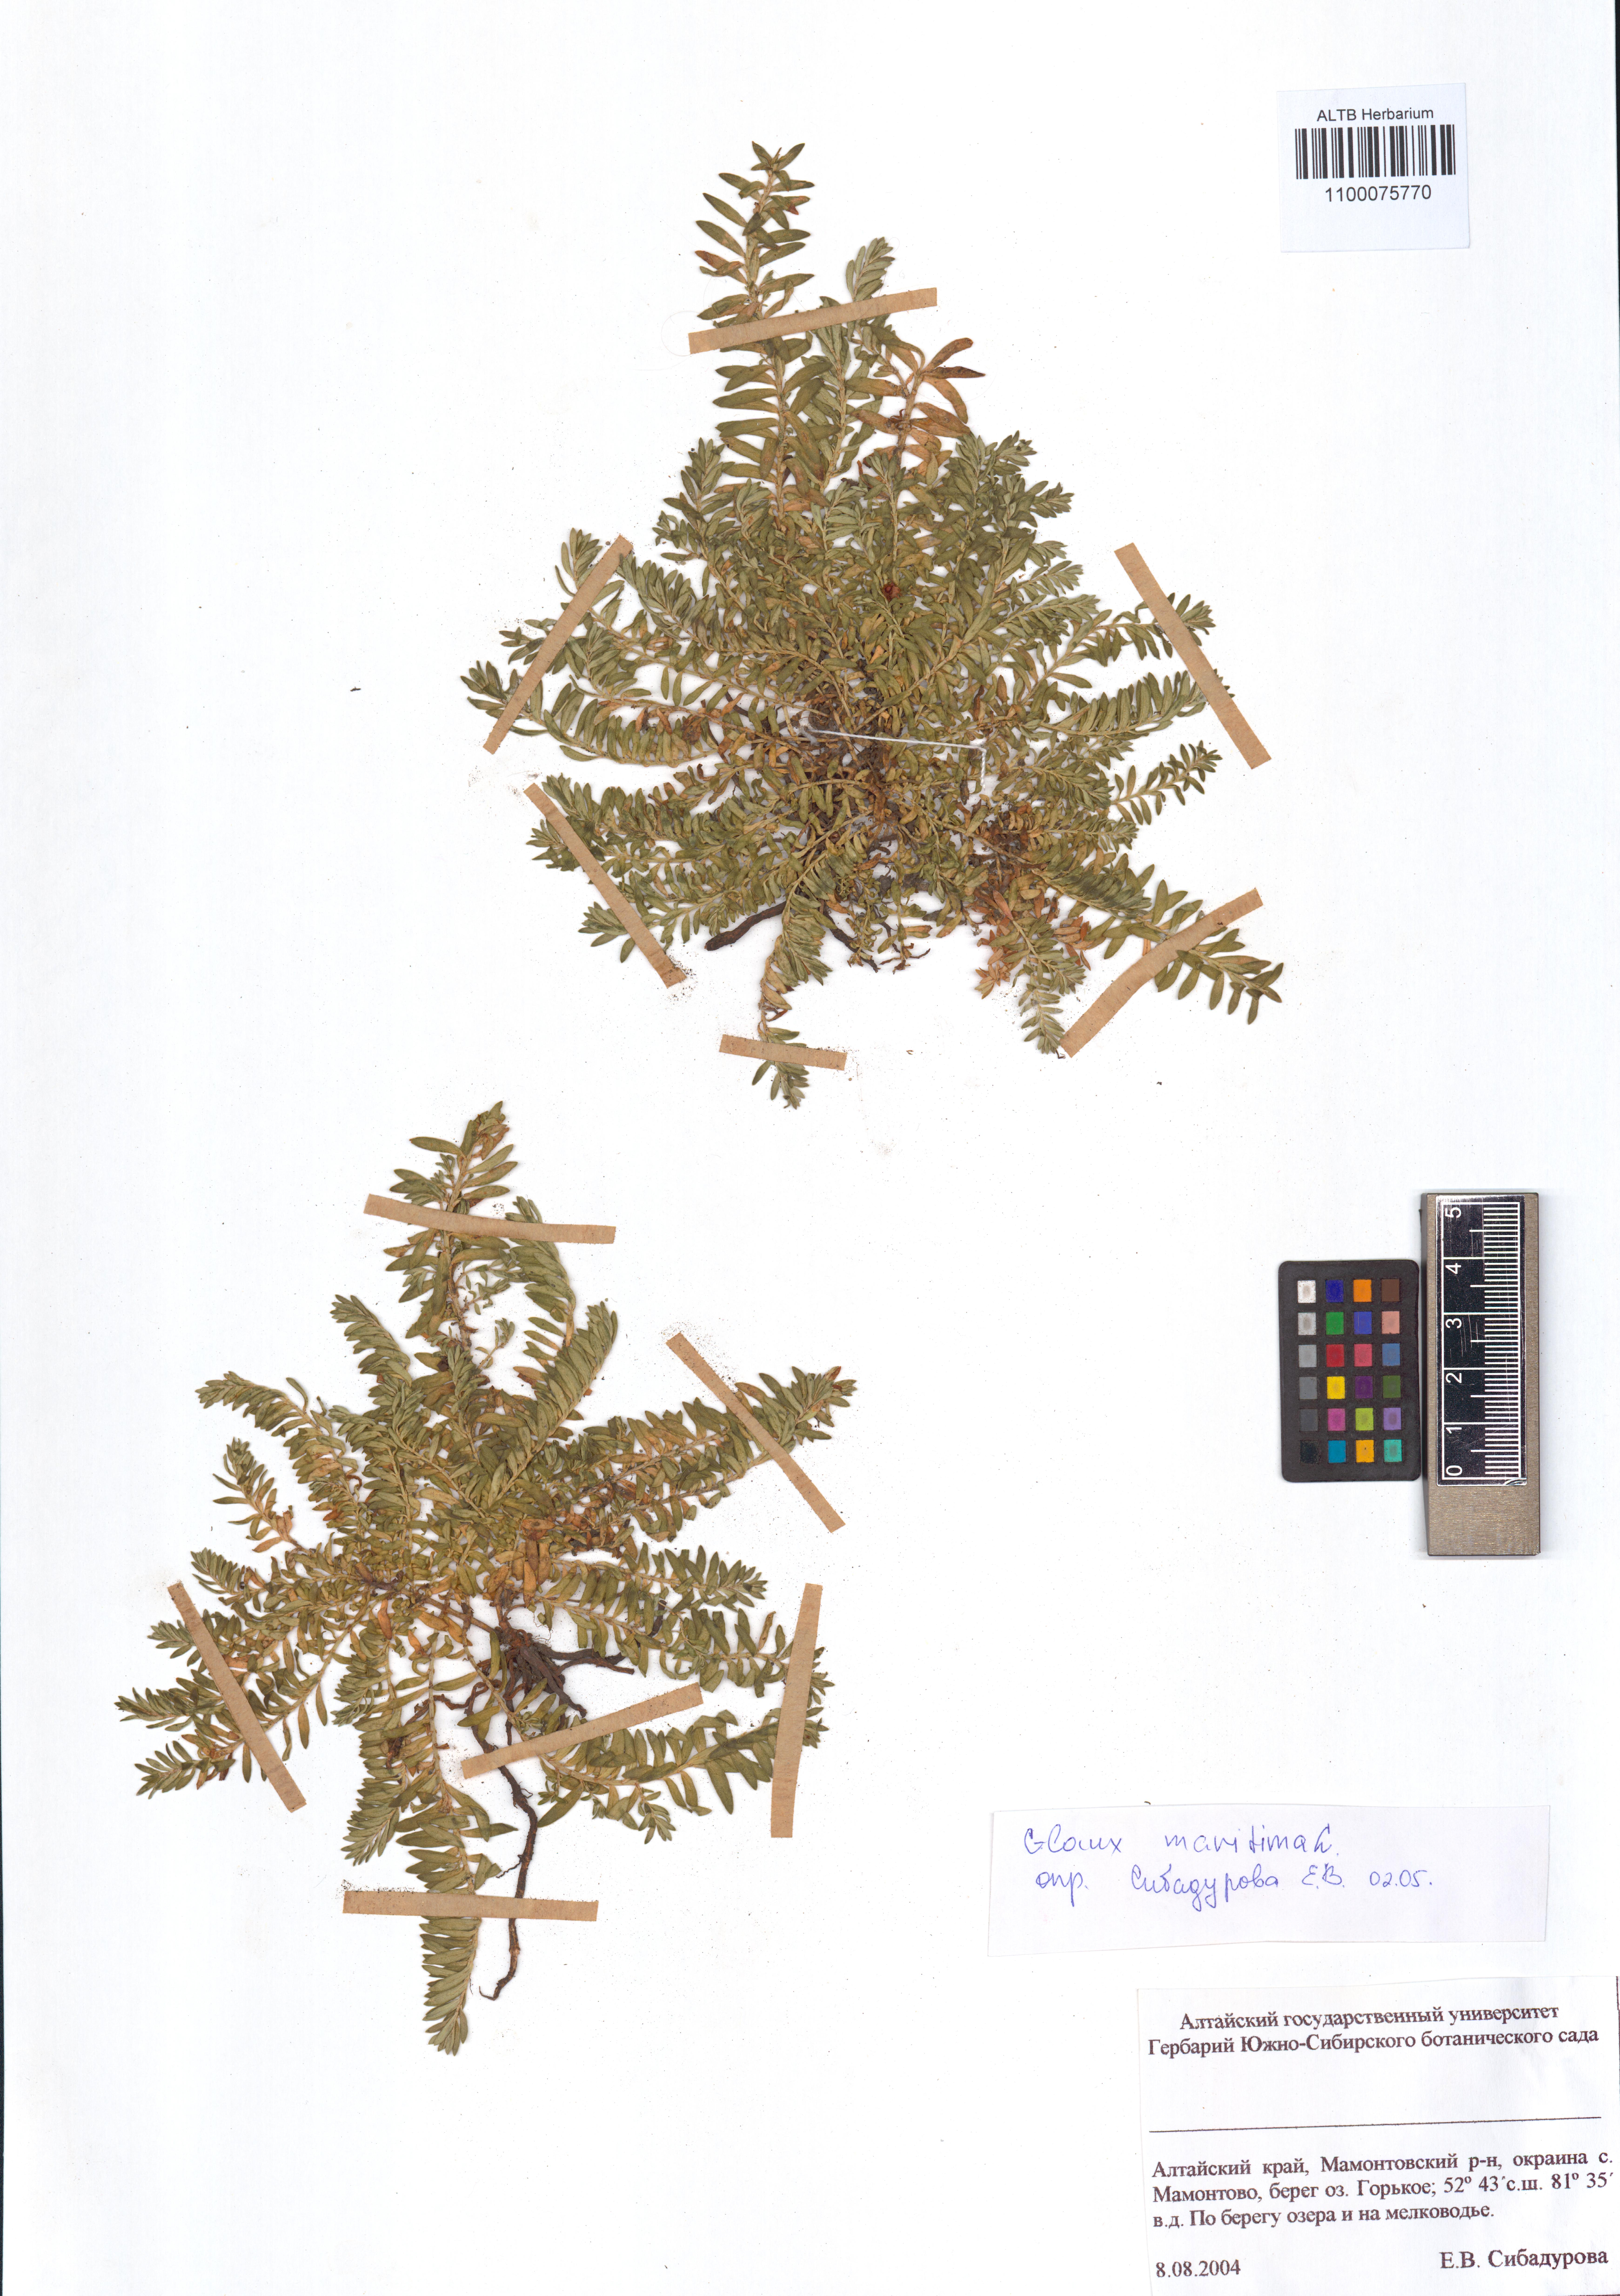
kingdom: Plantae
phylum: Tracheophyta
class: Magnoliopsida
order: Ericales
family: Primulaceae
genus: Lysimachia
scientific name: Lysimachia maritima
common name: Sea milkwort
